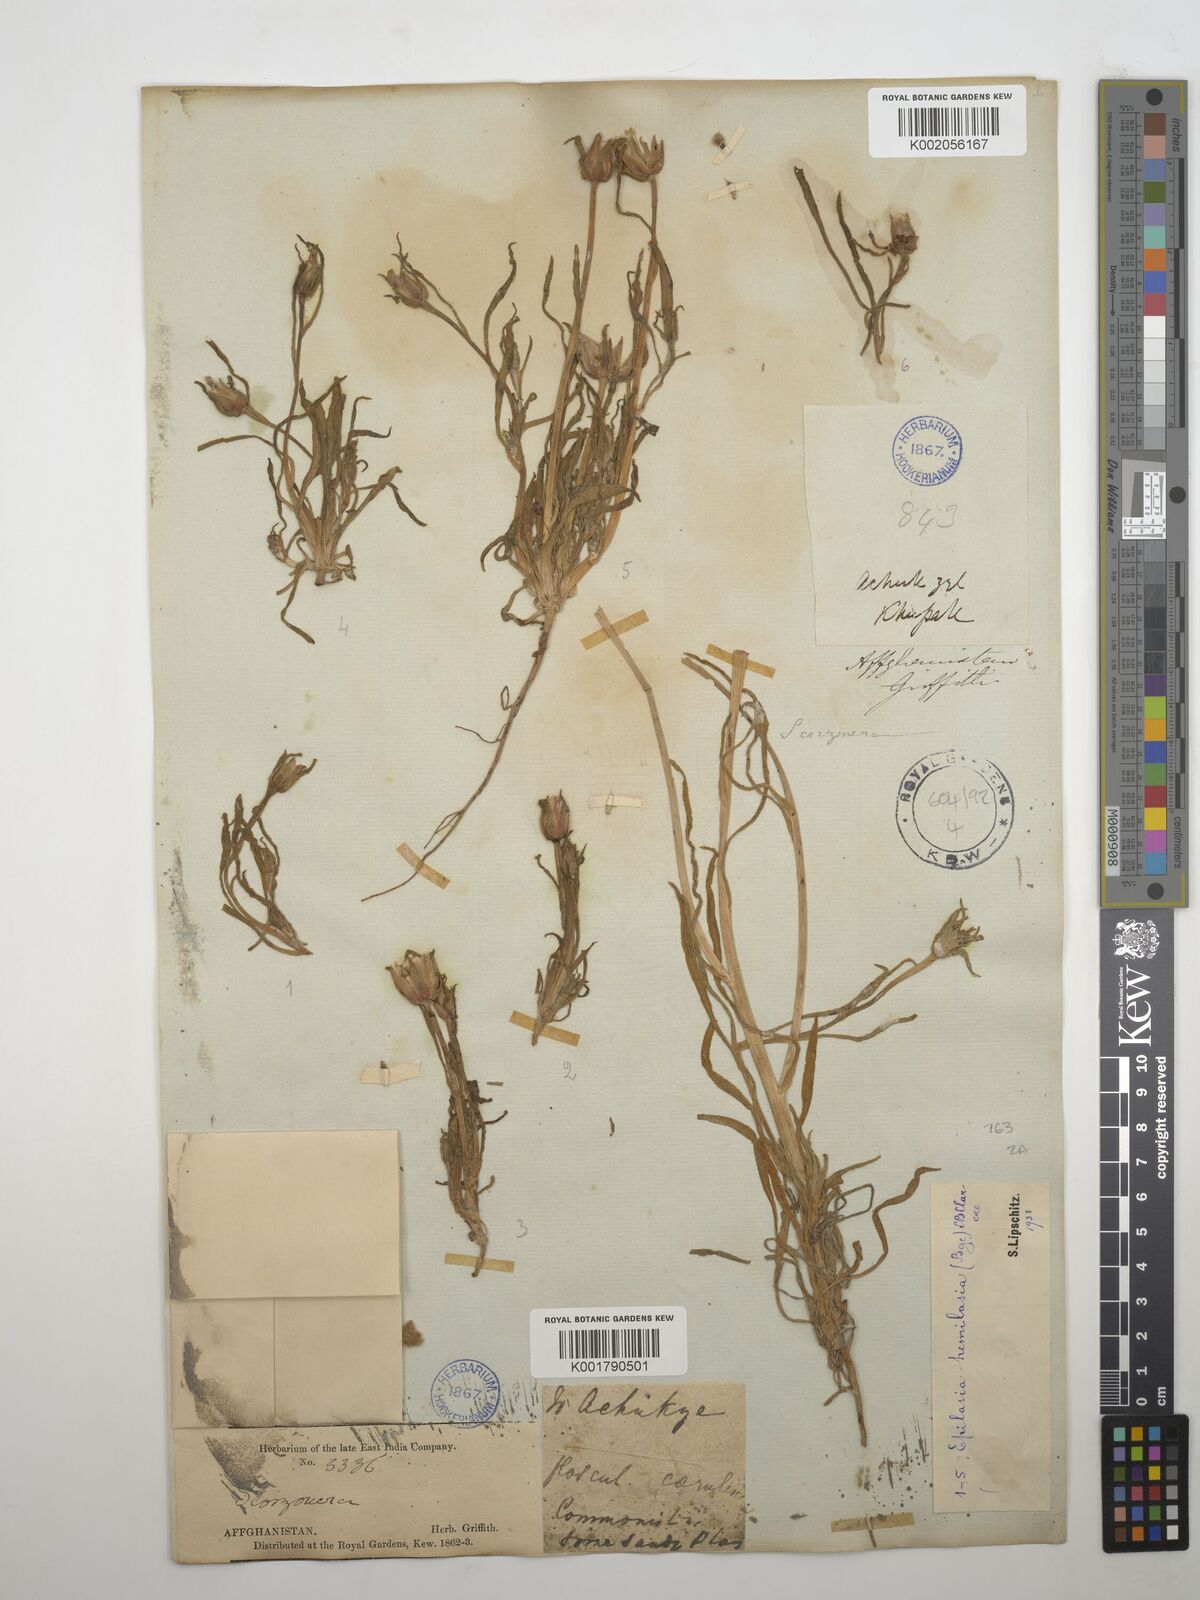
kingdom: Plantae
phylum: Tracheophyta
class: Magnoliopsida
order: Asterales
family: Asteraceae
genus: Epilasia
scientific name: Epilasia hemilasia
